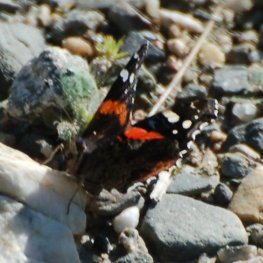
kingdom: Animalia
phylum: Arthropoda
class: Insecta
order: Lepidoptera
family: Nymphalidae
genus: Vanessa
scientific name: Vanessa atalanta
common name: Red Admiral
